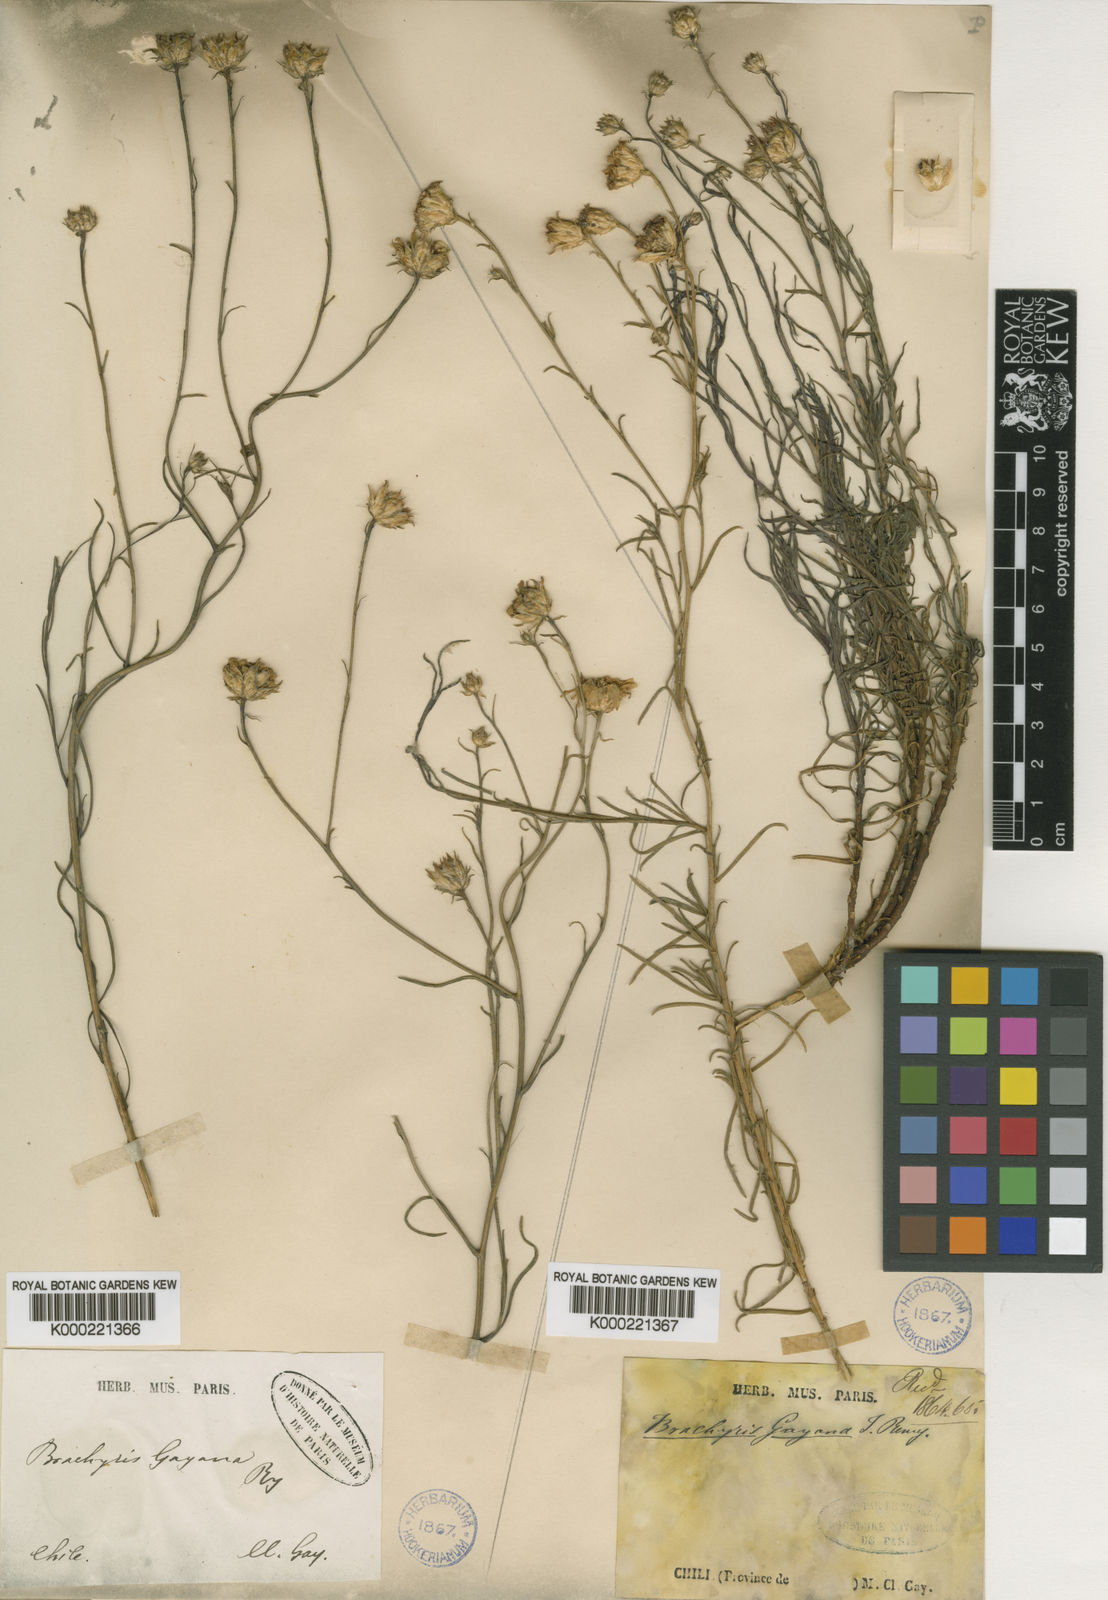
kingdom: Plantae
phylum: Tracheophyta
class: Magnoliopsida
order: Asterales
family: Asteraceae
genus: Gutierrezia
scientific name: Gutierrezia gayana
